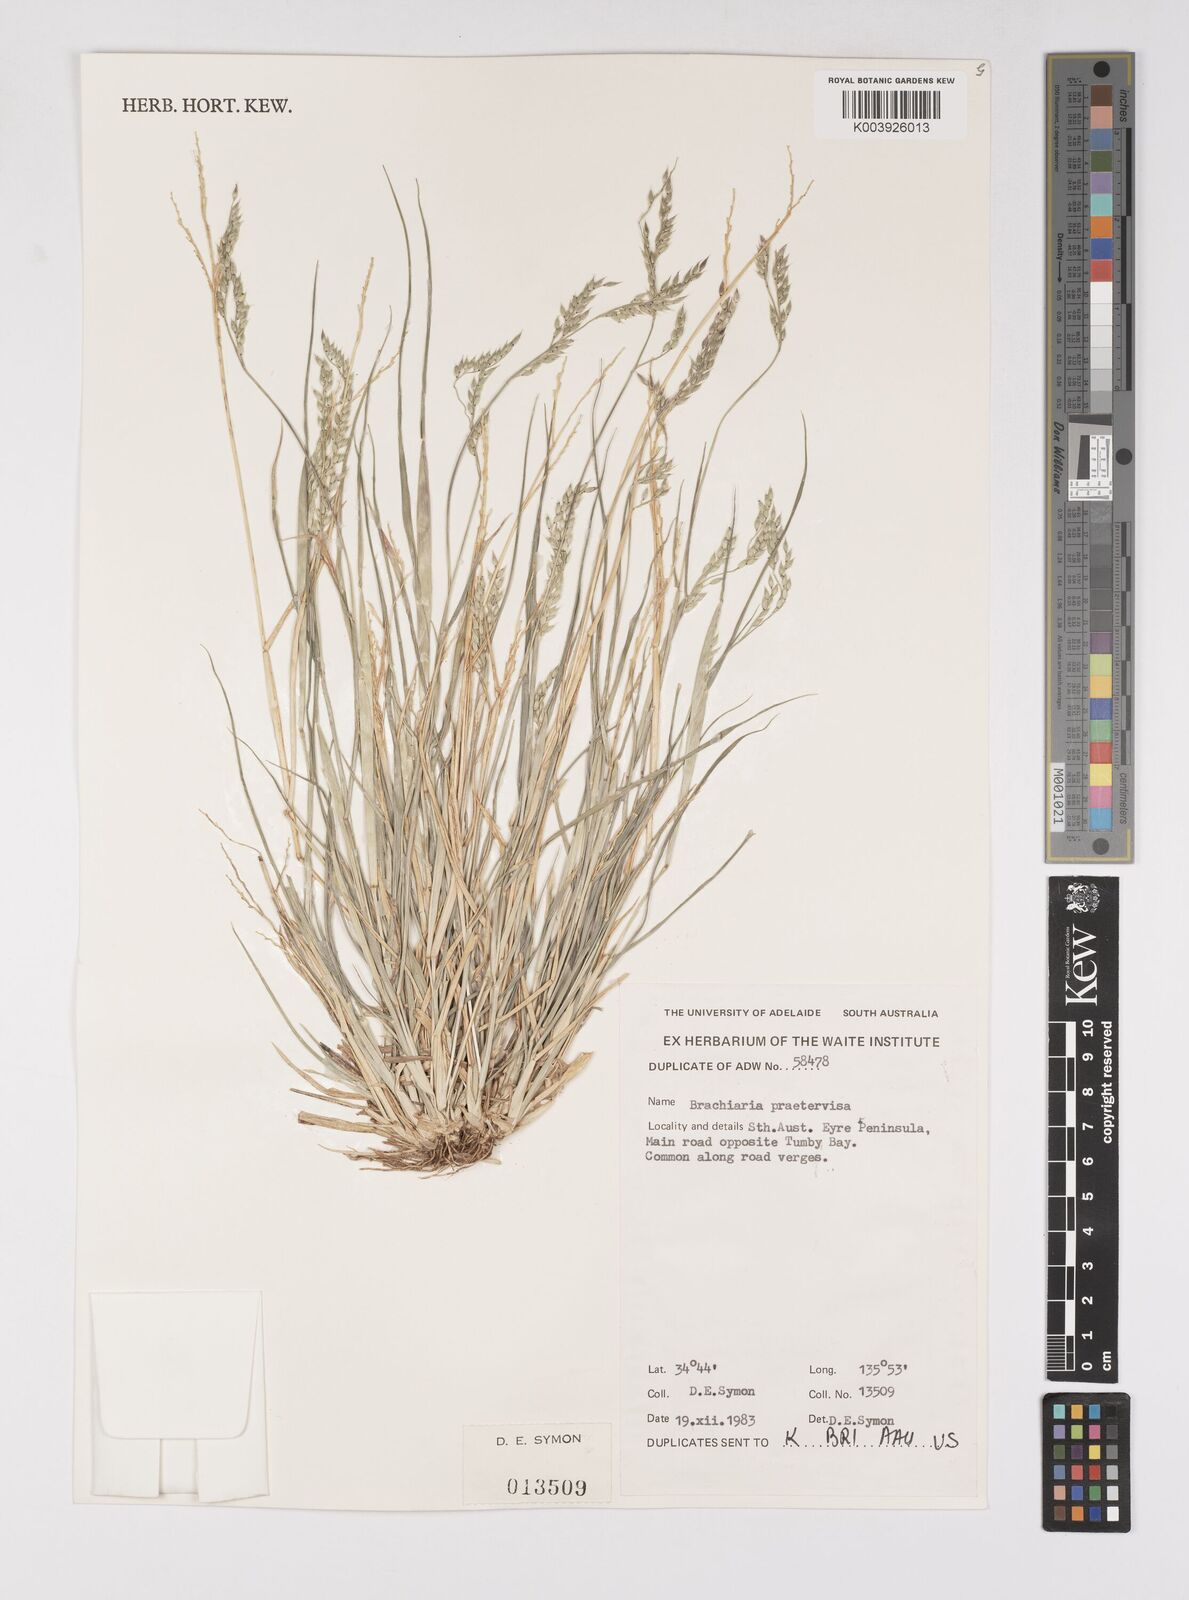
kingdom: Plantae
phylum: Tracheophyta
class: Liliopsida
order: Poales
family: Poaceae
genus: Eriochloa
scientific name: Eriochloa
